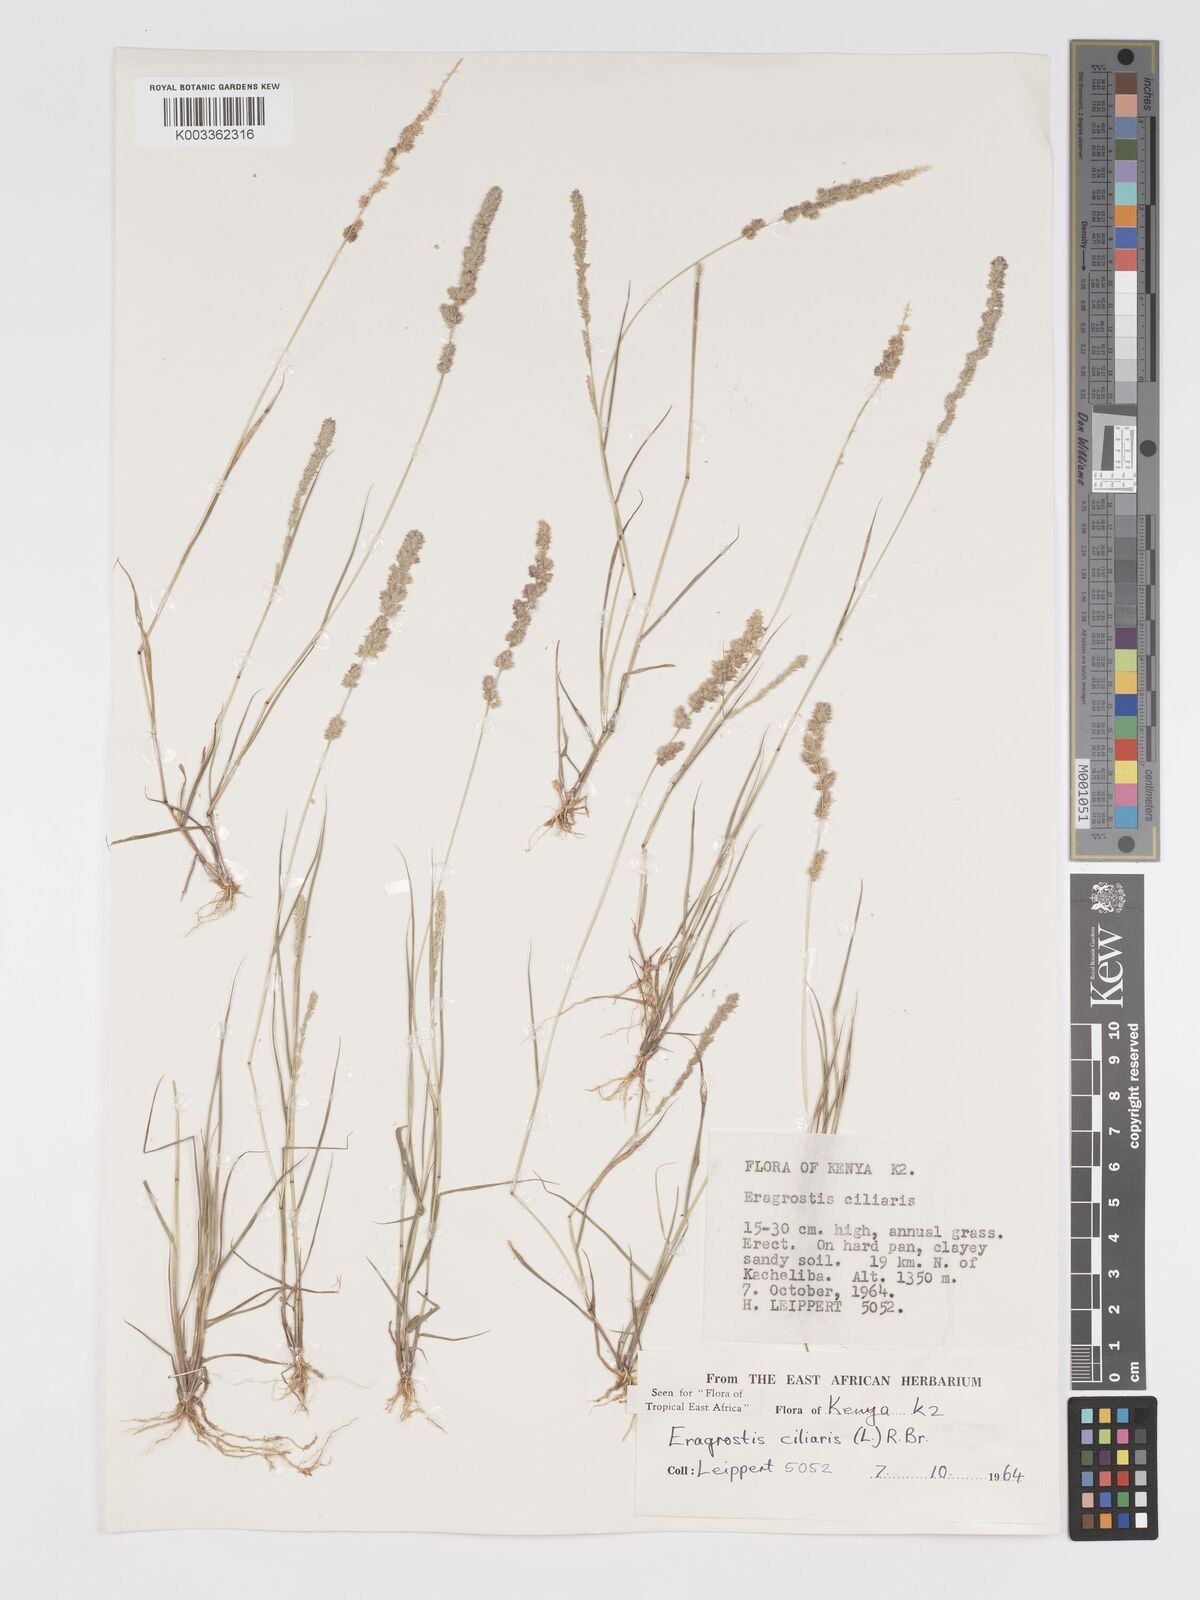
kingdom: Plantae
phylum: Tracheophyta
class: Liliopsida
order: Poales
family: Poaceae
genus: Eragrostis
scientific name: Eragrostis ciliaris
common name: Gophertail lovegrass
